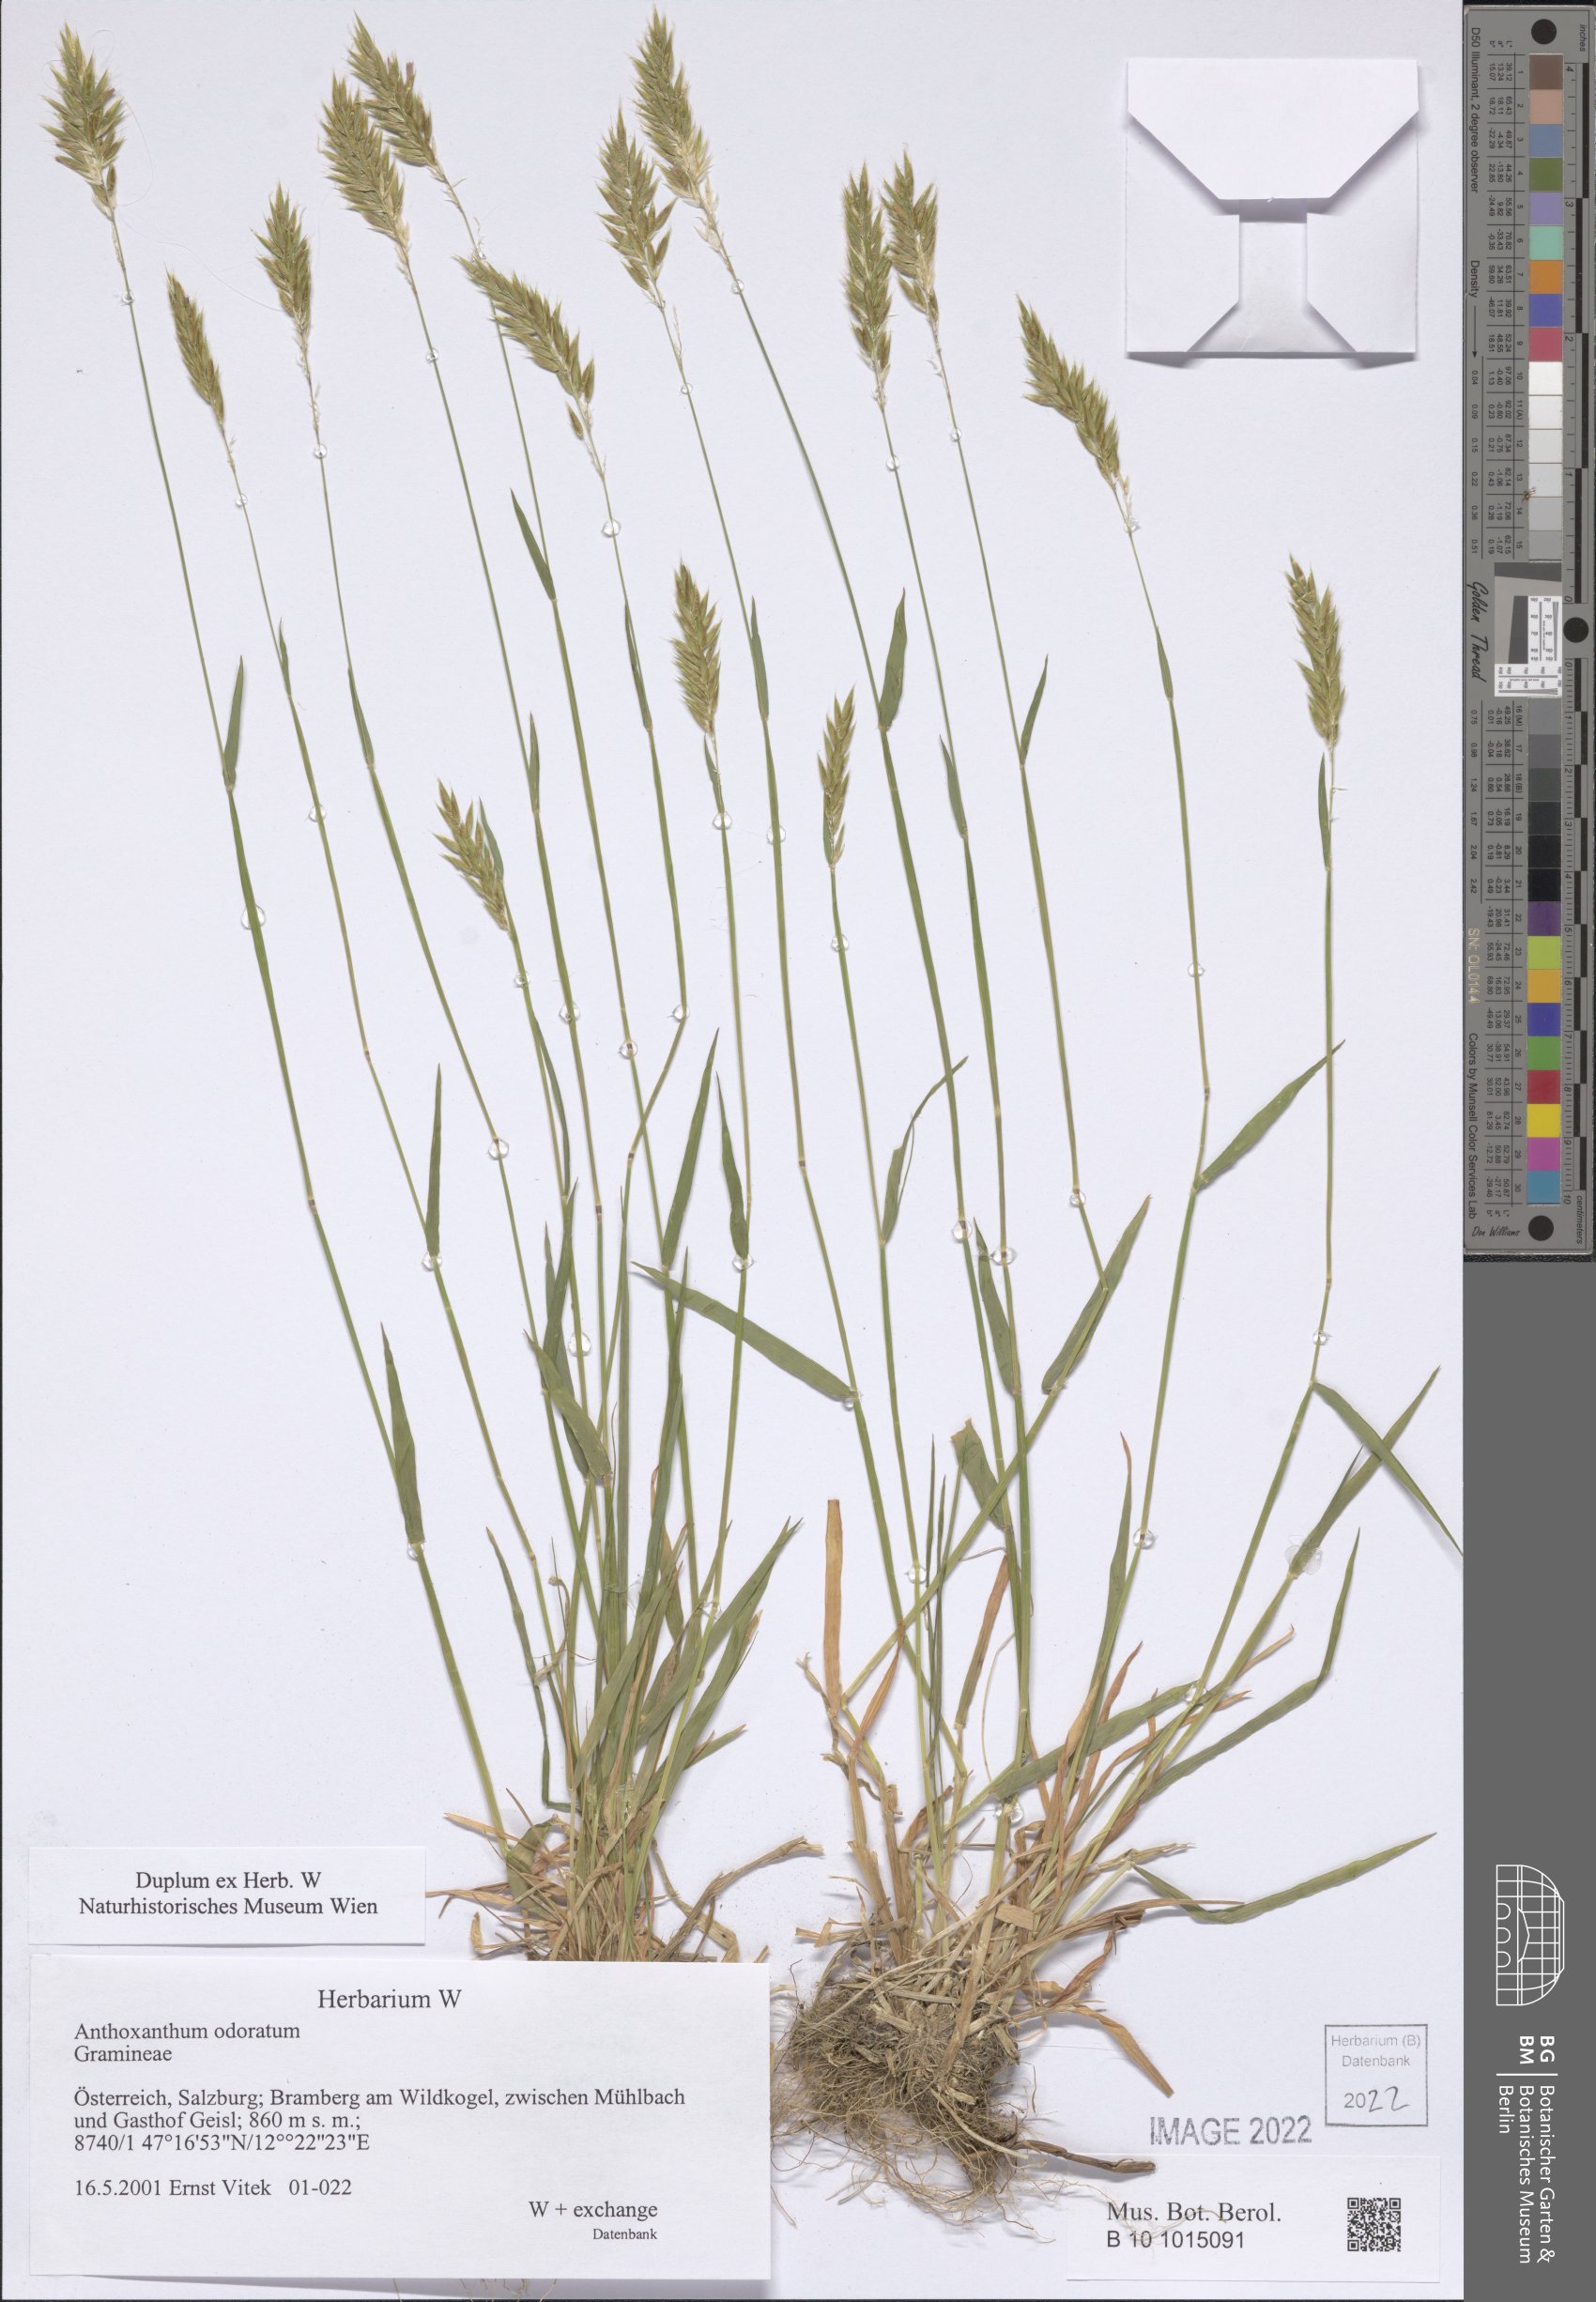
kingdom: Plantae
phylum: Tracheophyta
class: Liliopsida
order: Poales
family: Poaceae
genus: Anthoxanthum
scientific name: Anthoxanthum odoratum
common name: Sweet vernalgrass
